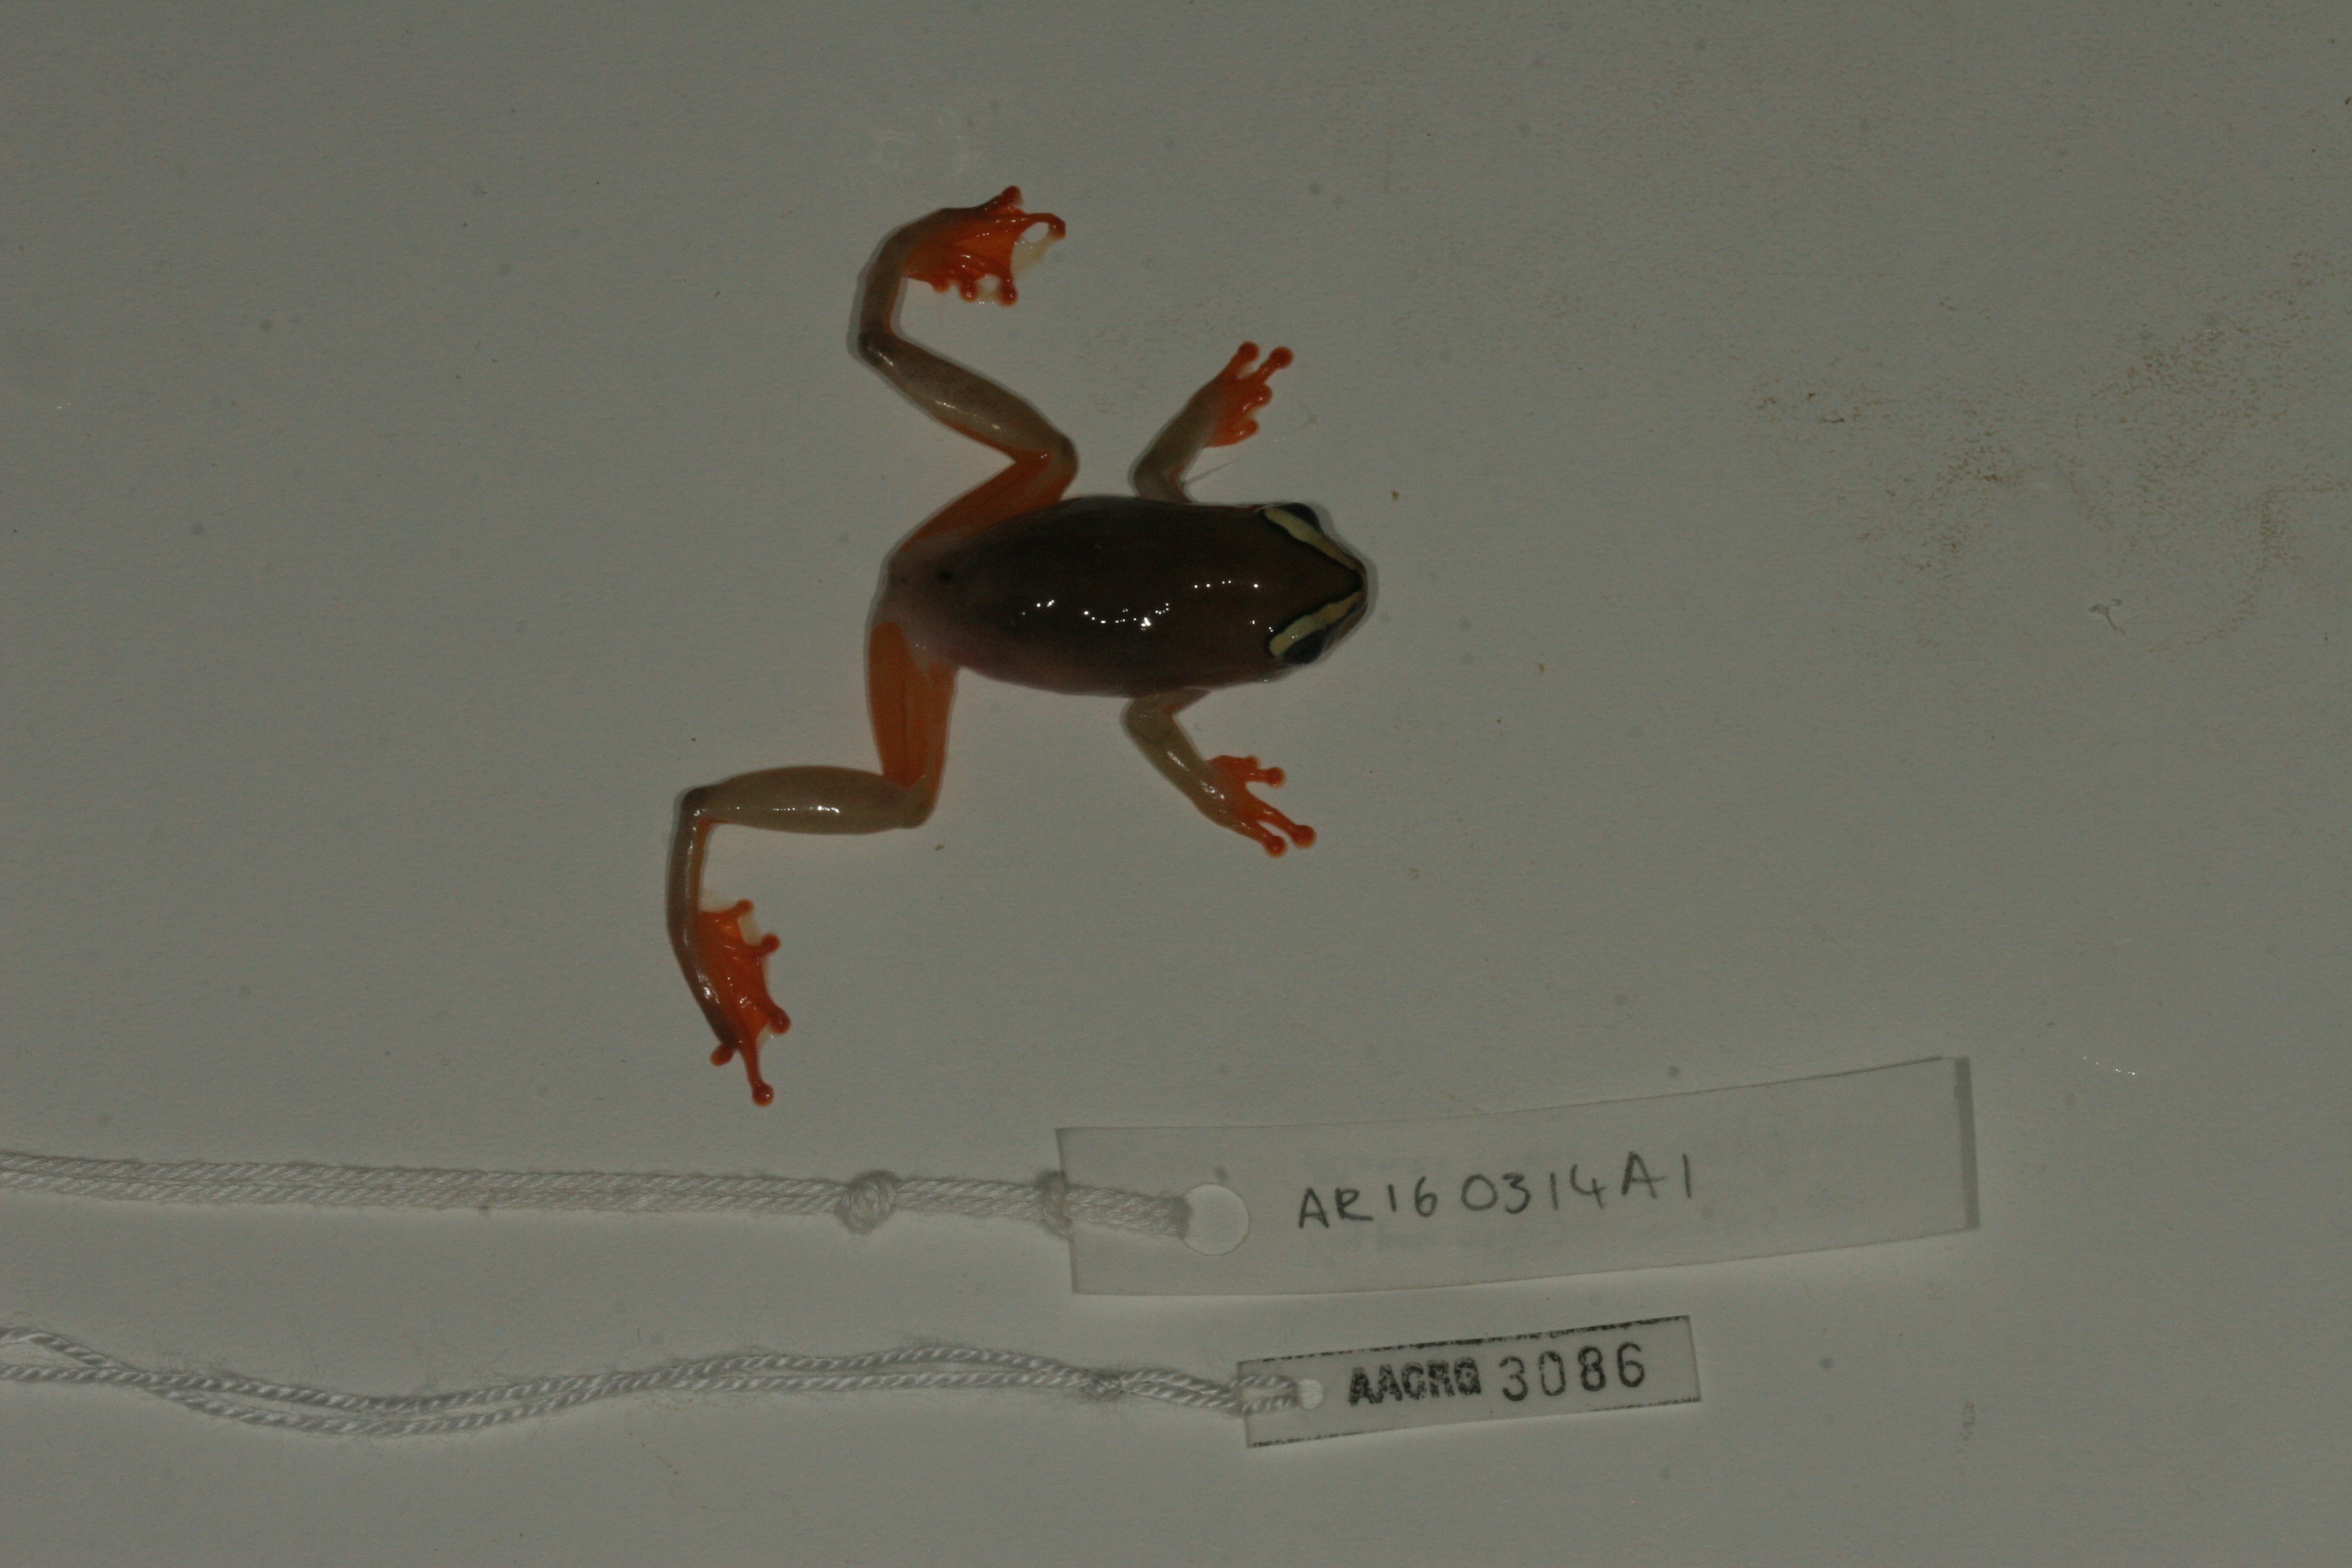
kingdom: Animalia
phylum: Chordata
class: Amphibia
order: Anura
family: Hyperoliidae
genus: Hyperolius
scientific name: Hyperolius argus
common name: Argus reed frog
